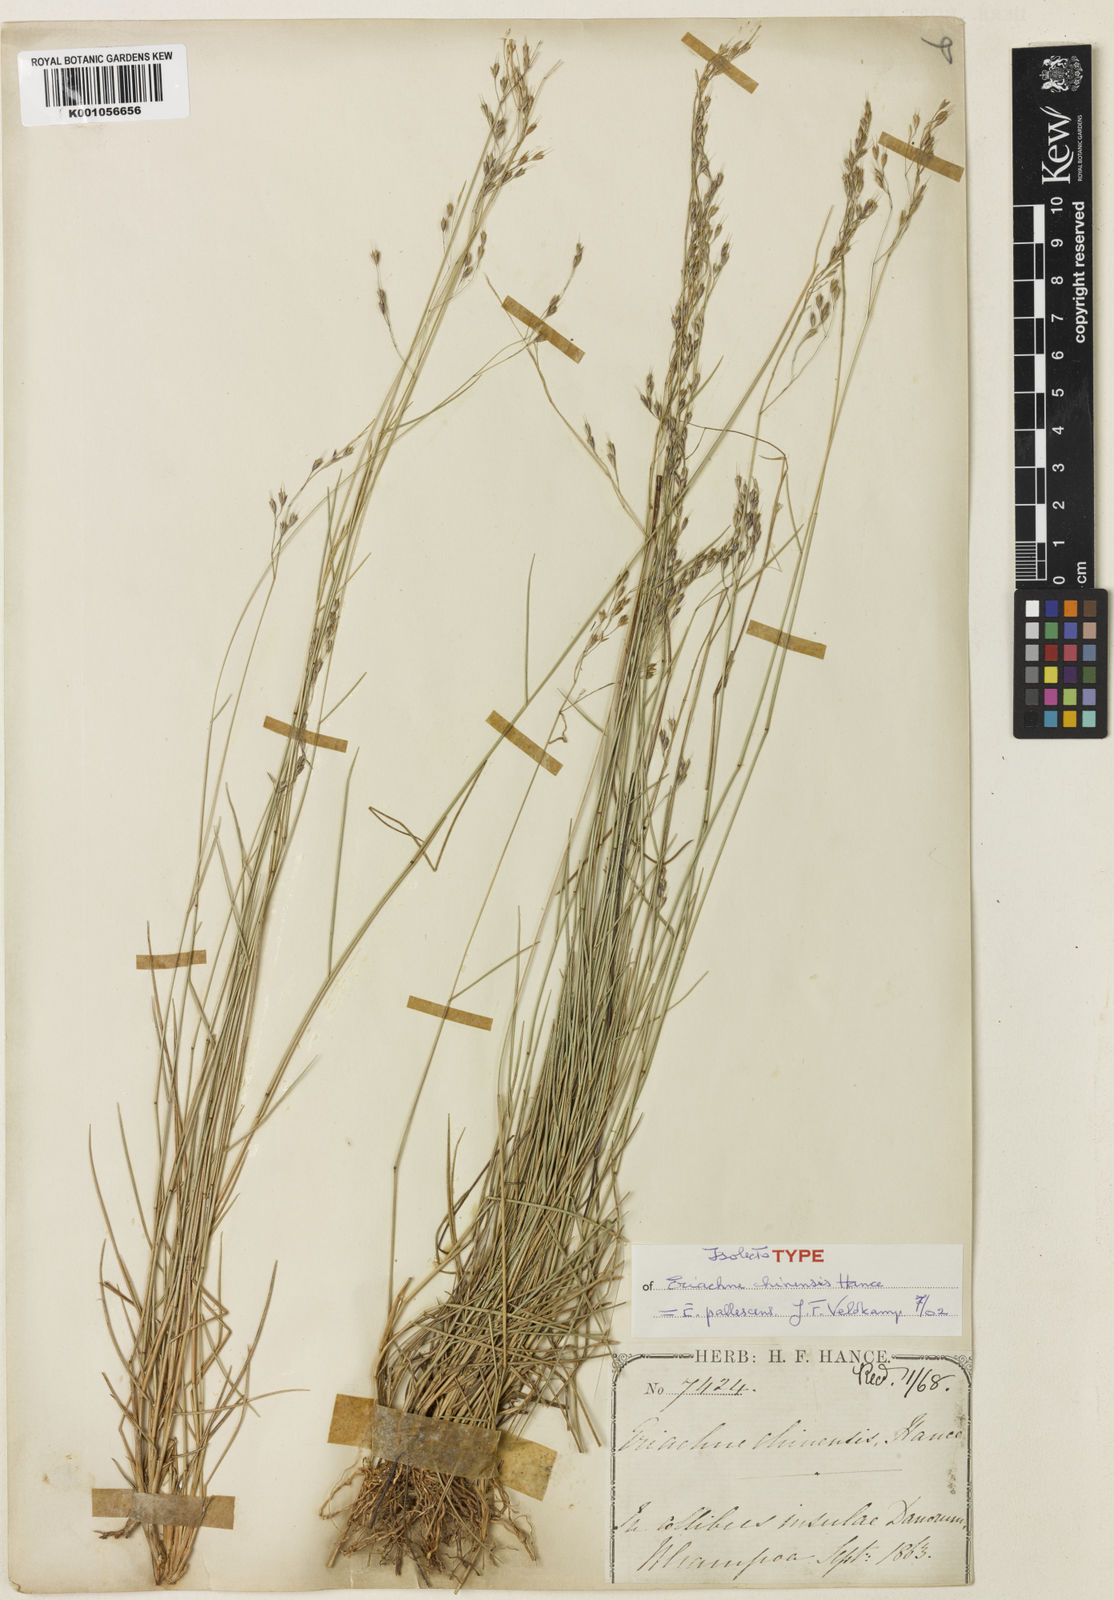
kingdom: Plantae
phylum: Tracheophyta
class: Liliopsida
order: Poales
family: Poaceae
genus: Eriachne
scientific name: Eriachne pallescens
